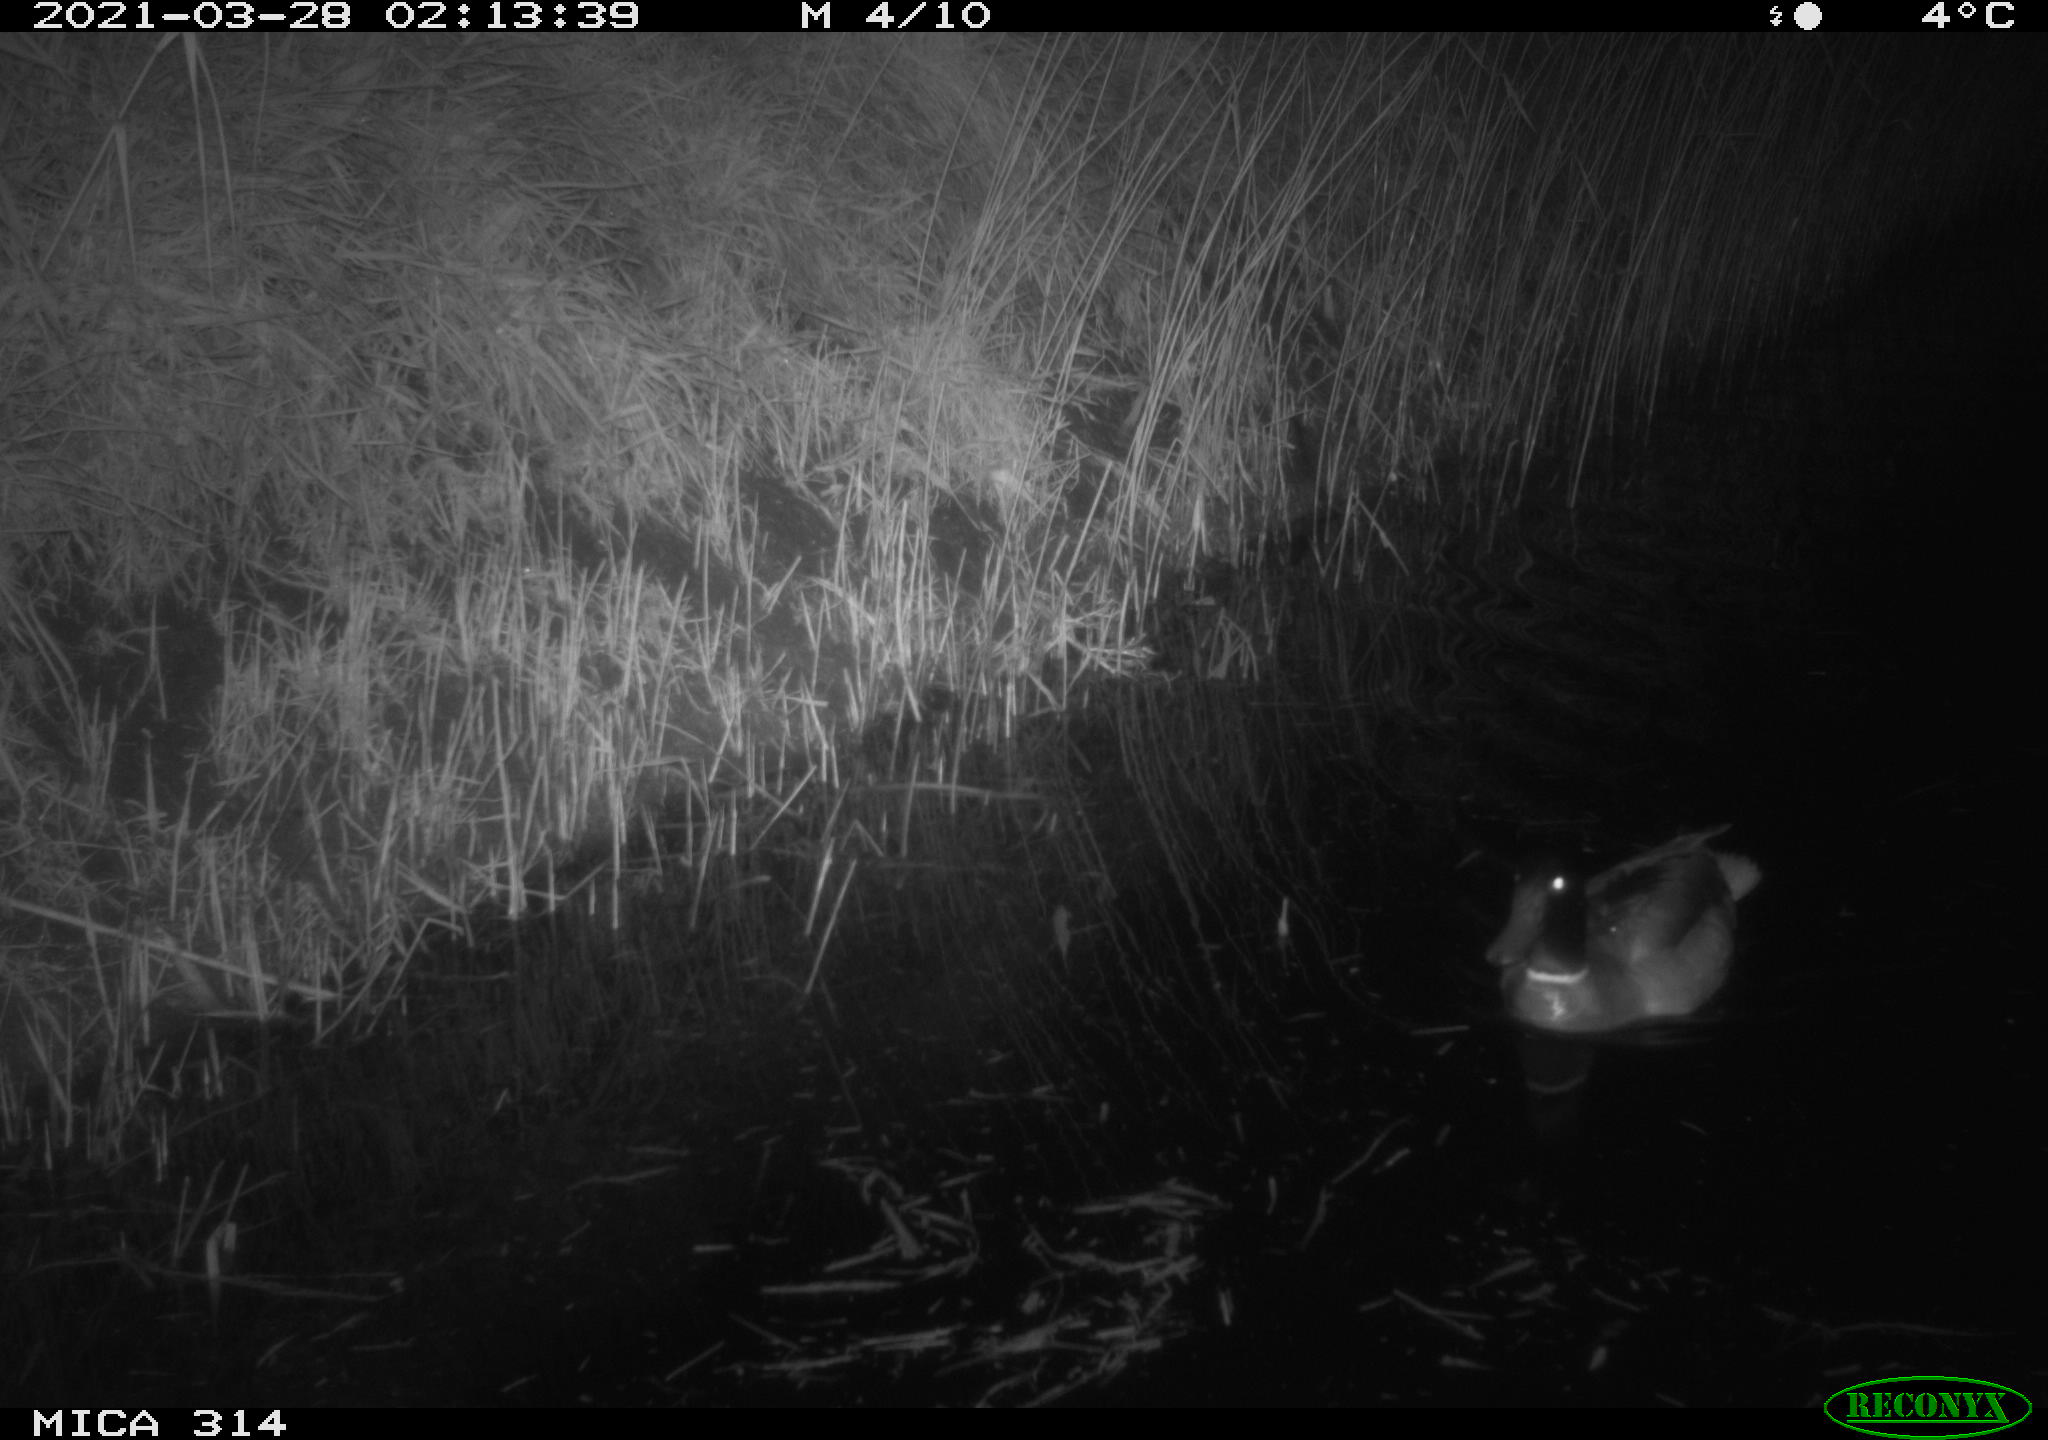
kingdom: Animalia
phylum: Chordata
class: Aves
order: Anseriformes
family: Anatidae
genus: Anas
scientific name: Anas platyrhynchos
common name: Mallard
